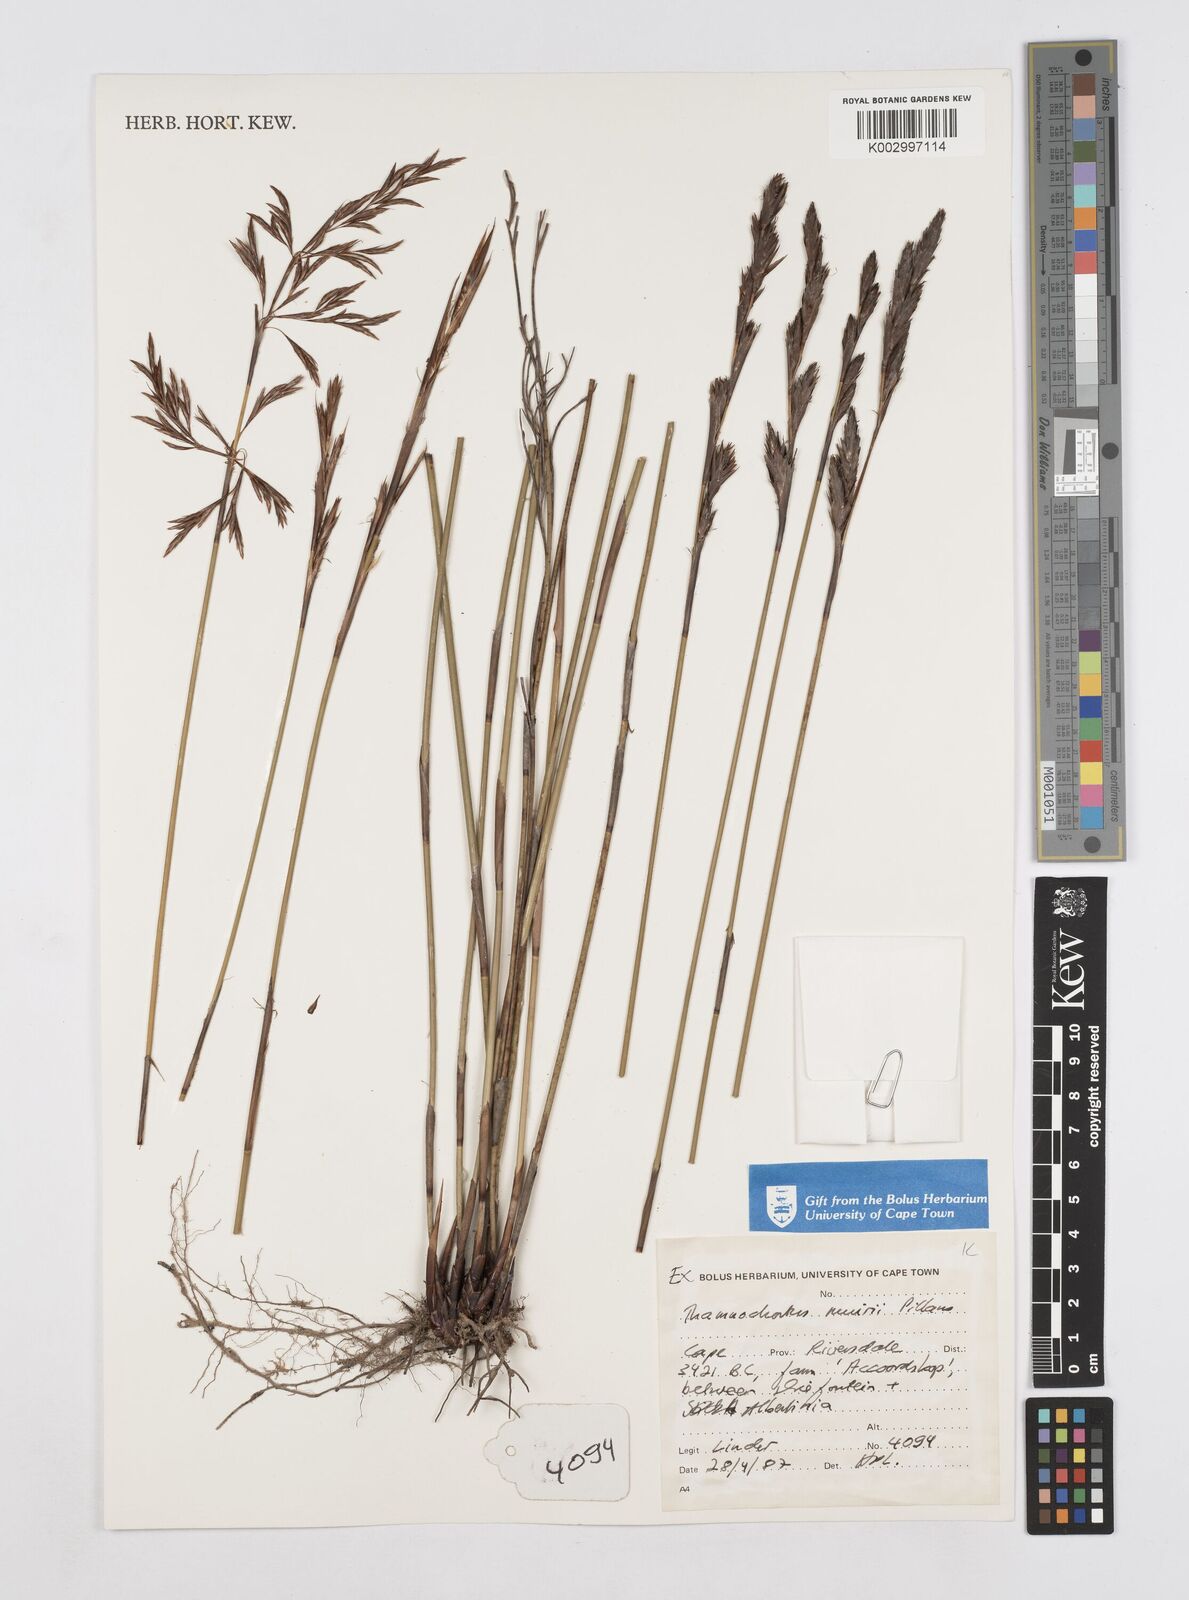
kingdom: Plantae
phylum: Tracheophyta
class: Liliopsida
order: Poales
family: Restionaceae
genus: Thamnochortus
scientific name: Thamnochortus muirii
